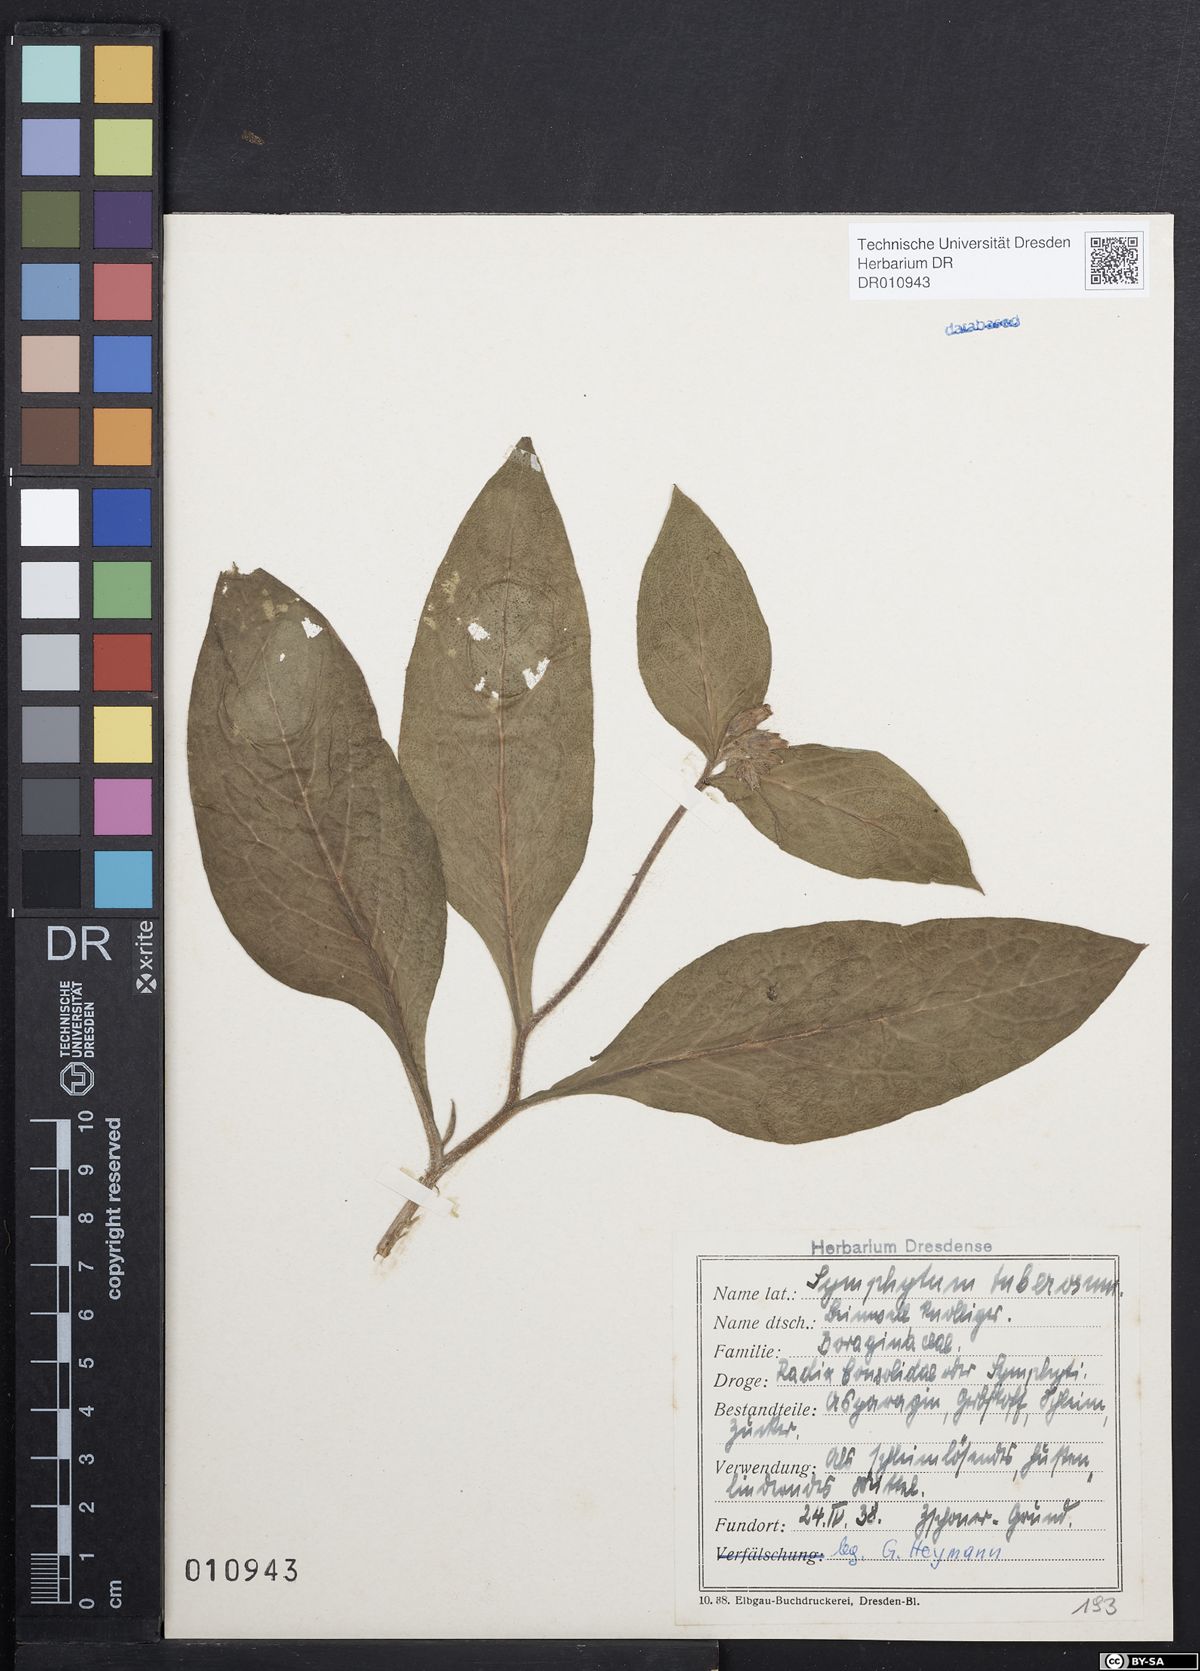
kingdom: Plantae
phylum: Tracheophyta
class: Magnoliopsida
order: Boraginales
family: Boraginaceae
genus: Symphytum
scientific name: Symphytum tuberosum
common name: Tuberous comfrey
